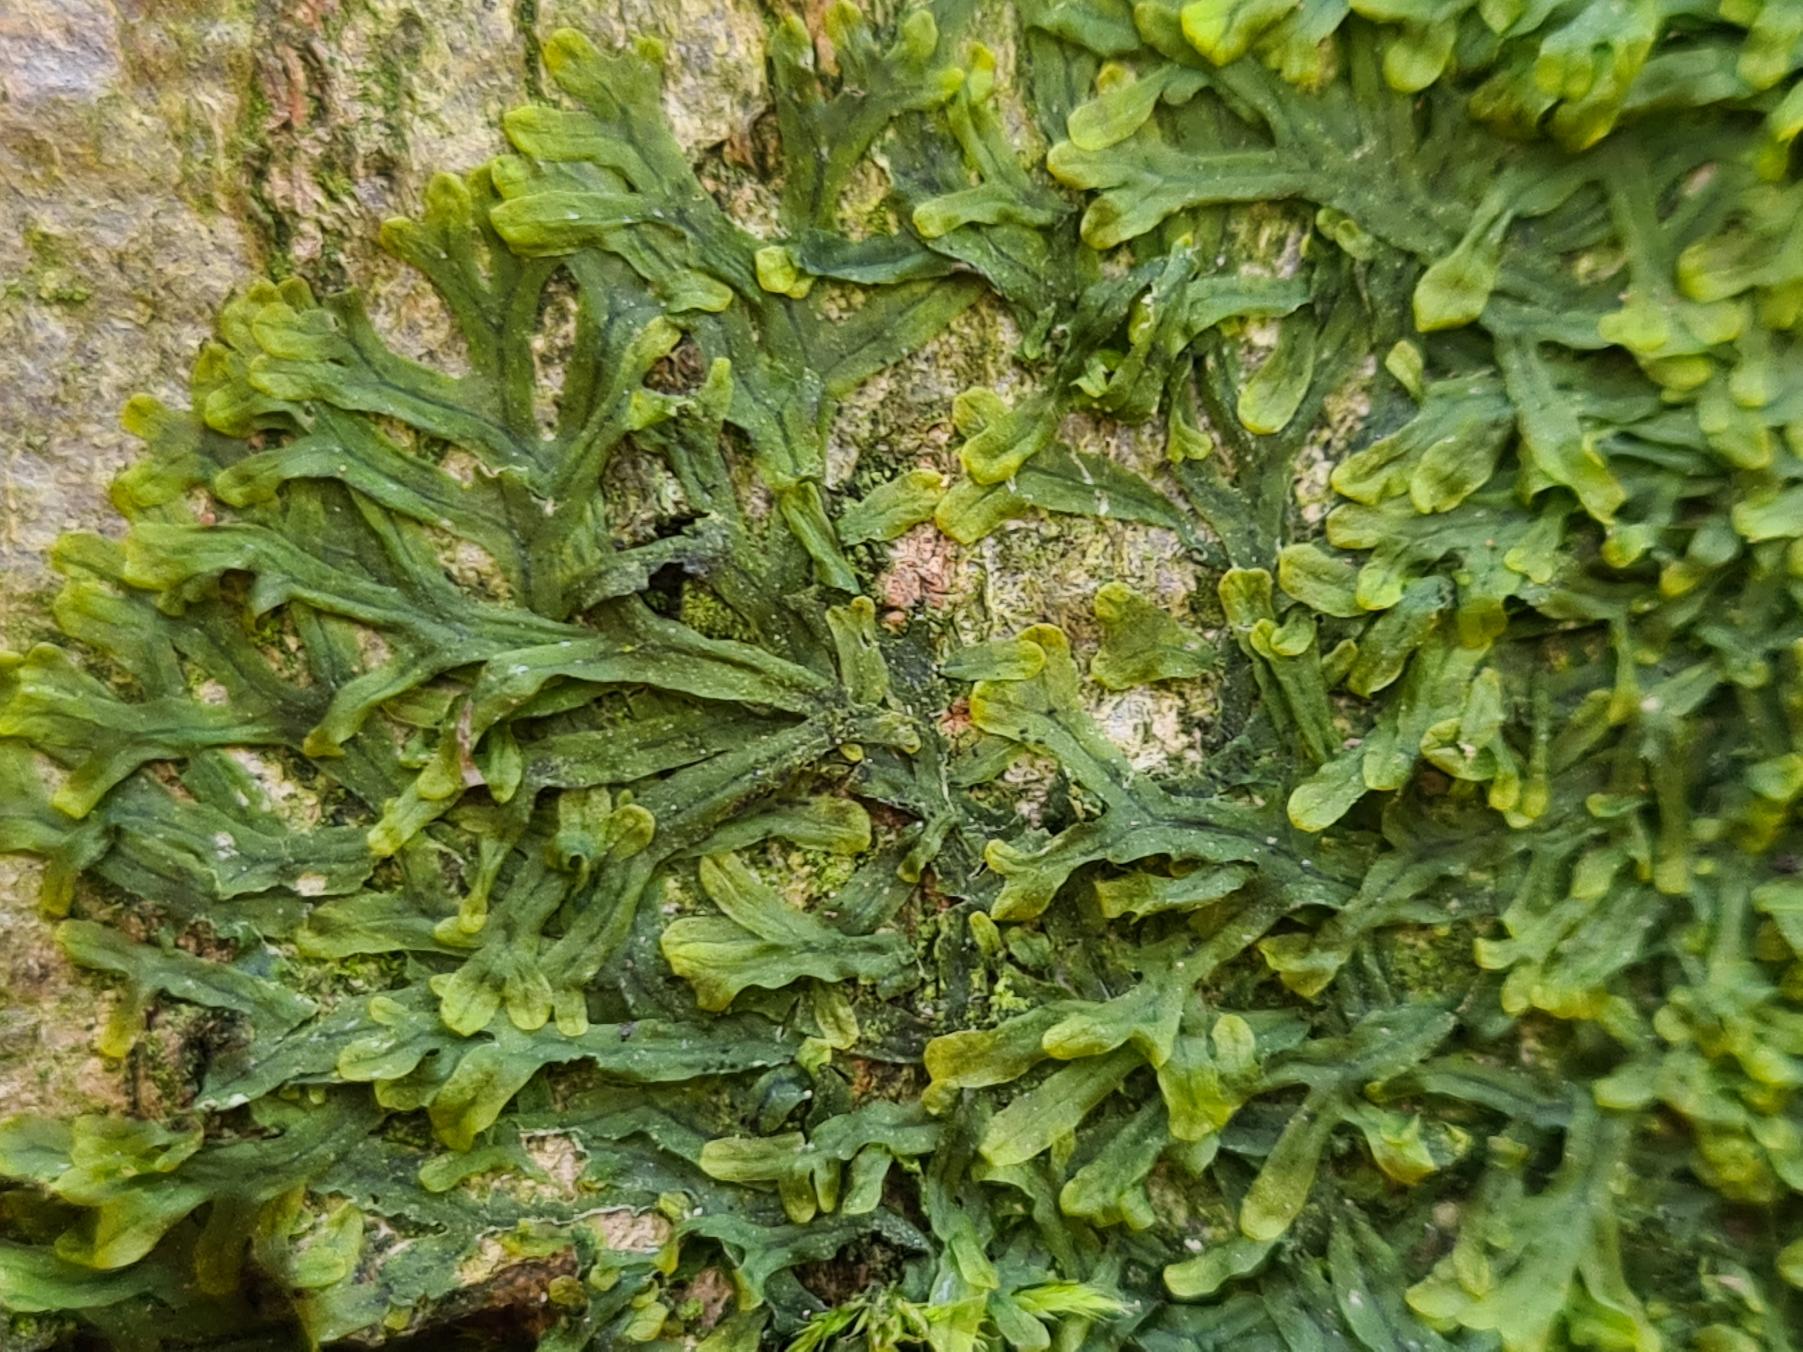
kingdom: Plantae
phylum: Marchantiophyta
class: Jungermanniopsida
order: Metzgeriales
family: Metzgeriaceae
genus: Metzgeria
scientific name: Metzgeria furcata
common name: Almindelig gaffelløv
